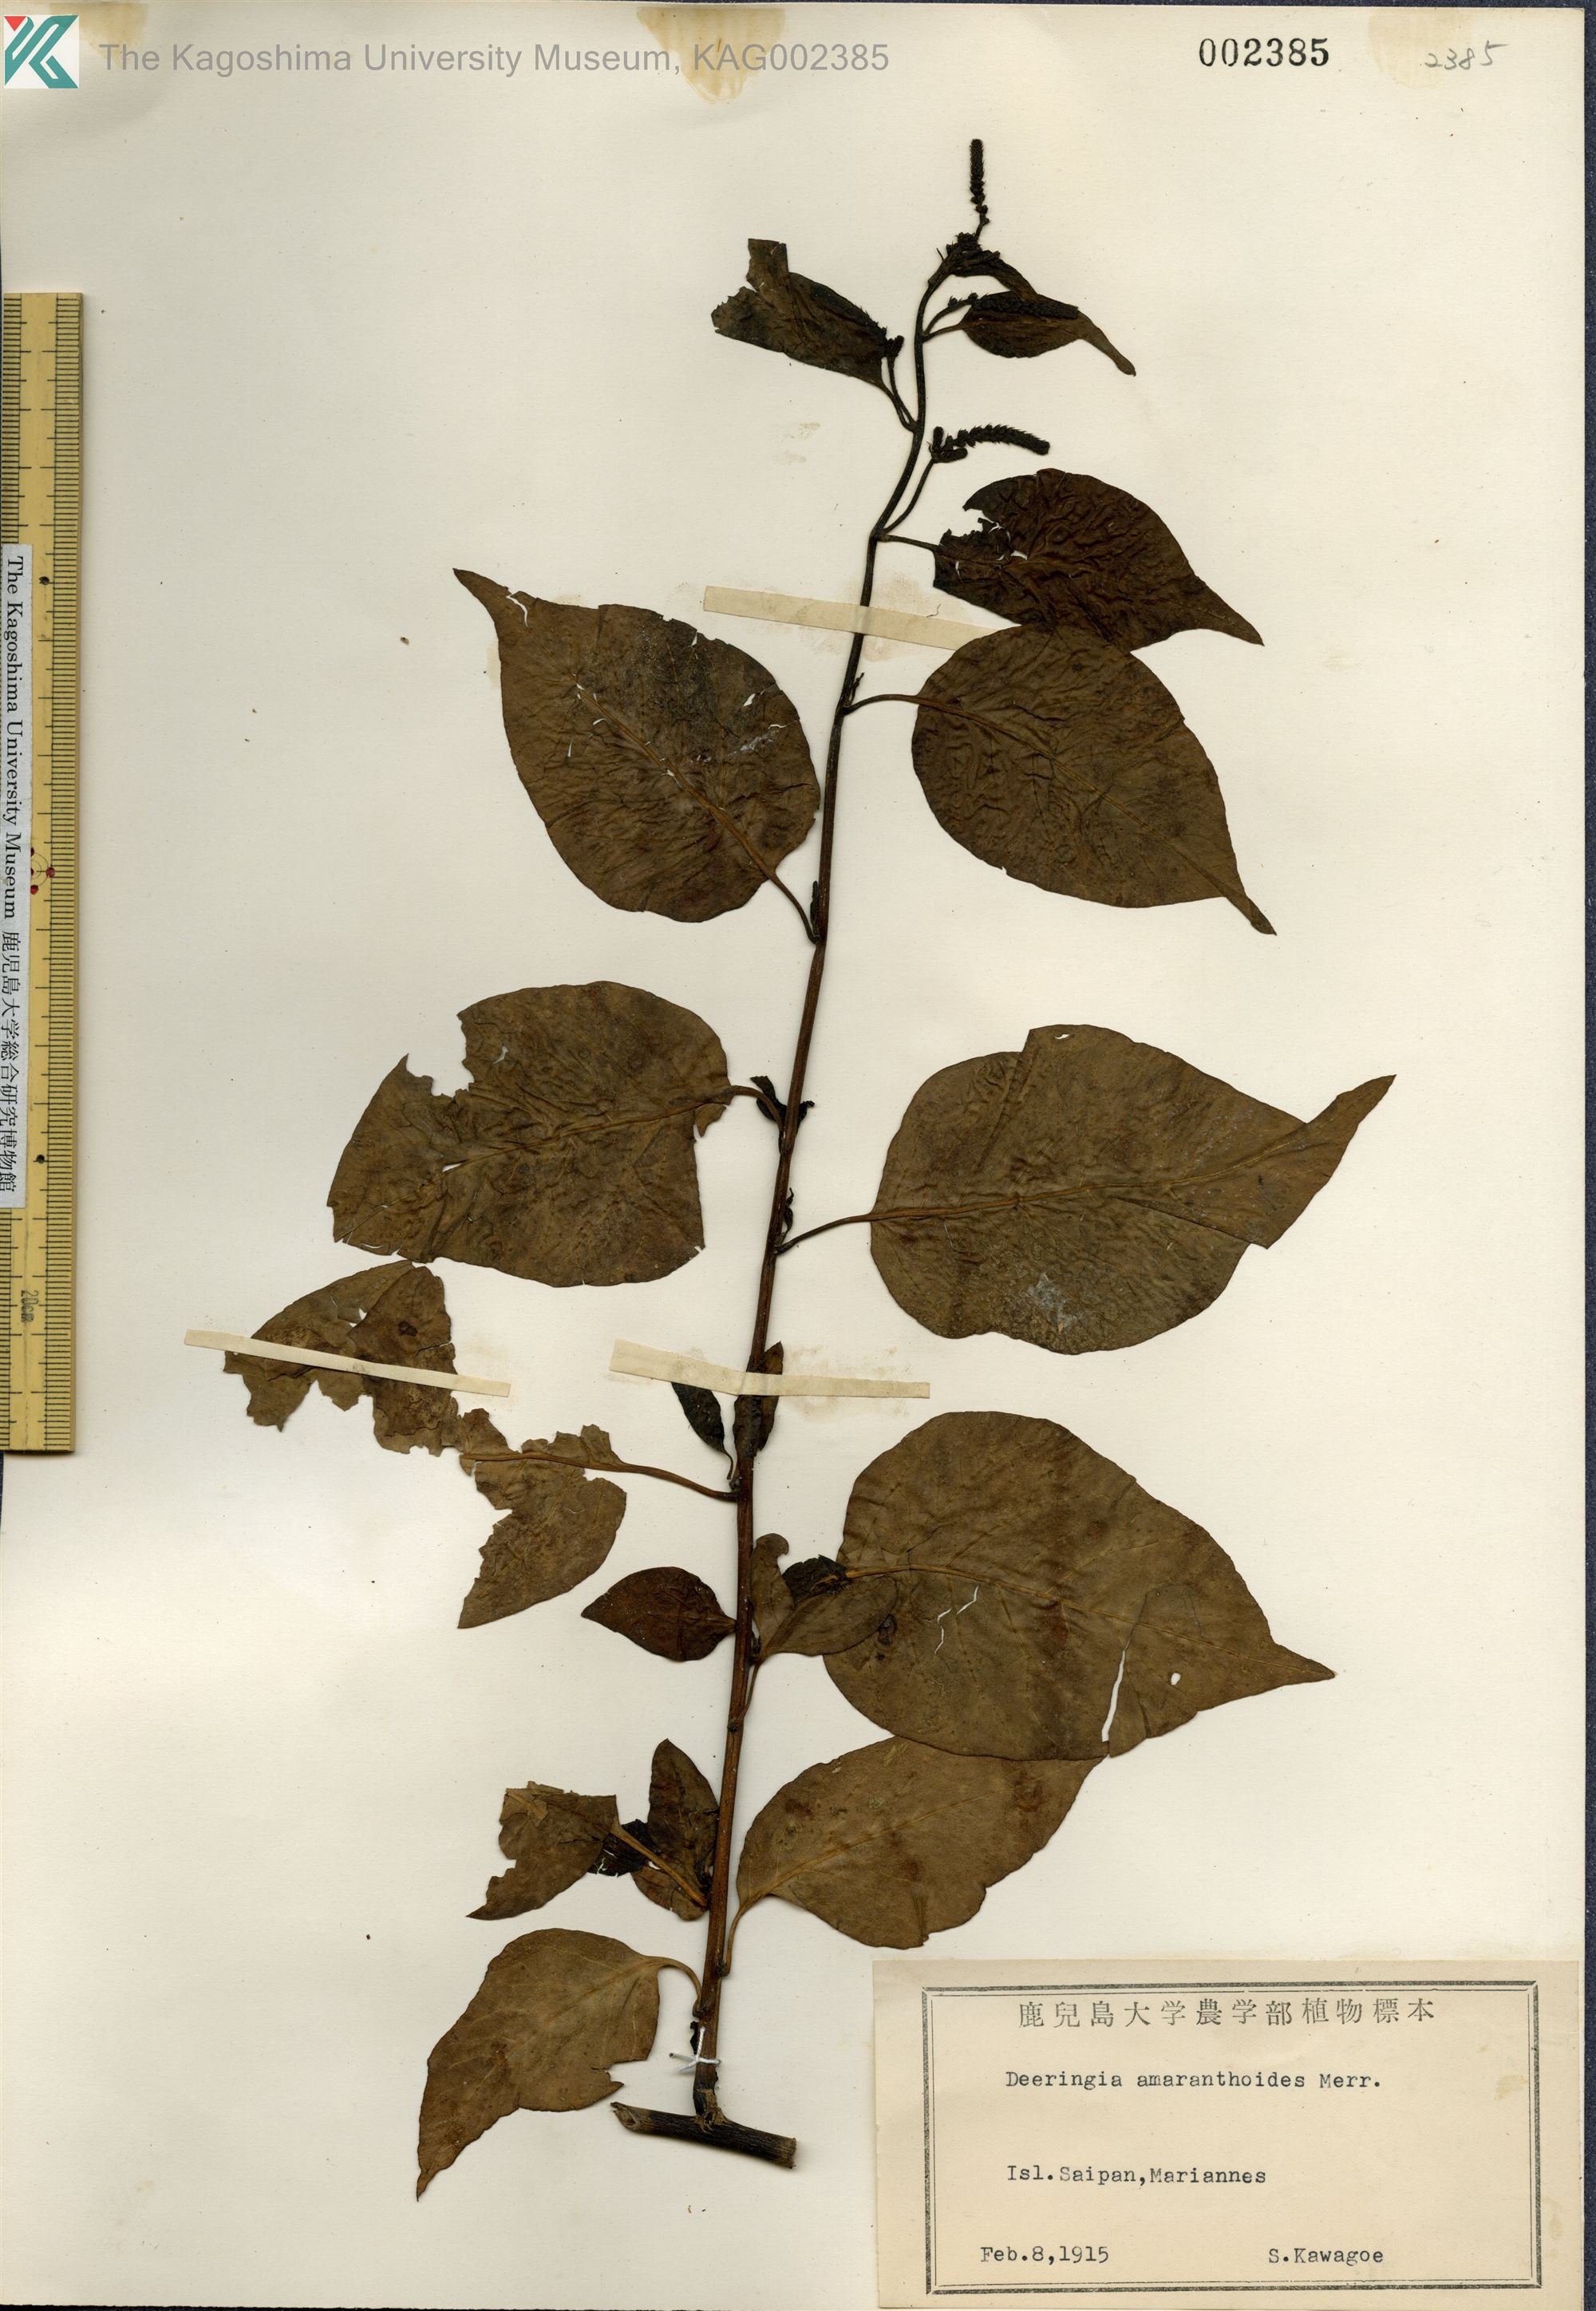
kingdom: Plantae
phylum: Tracheophyta
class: Magnoliopsida
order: Caryophyllales
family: Amaranthaceae
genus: Deeringia
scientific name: Deeringia amaranthoides
